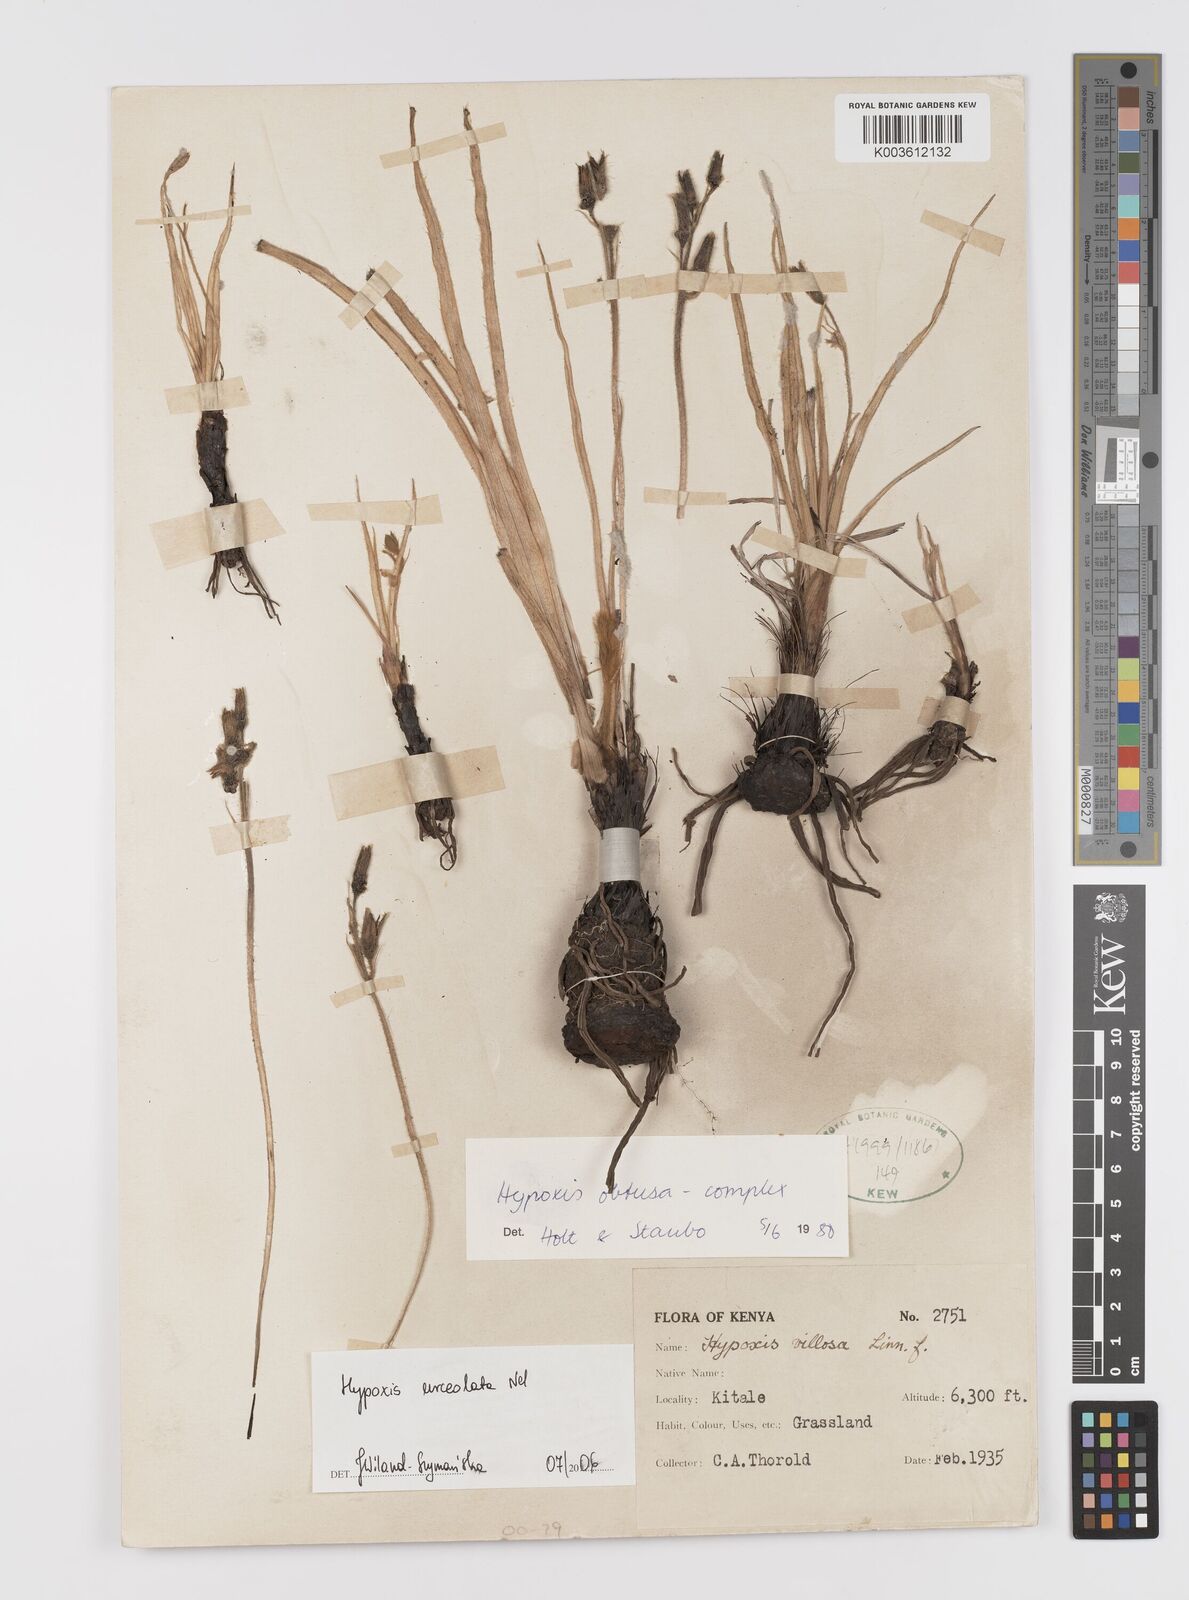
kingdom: Plantae
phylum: Tracheophyta
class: Liliopsida
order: Asparagales
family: Hypoxidaceae
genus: Hypoxis
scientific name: Hypoxis urceolata
